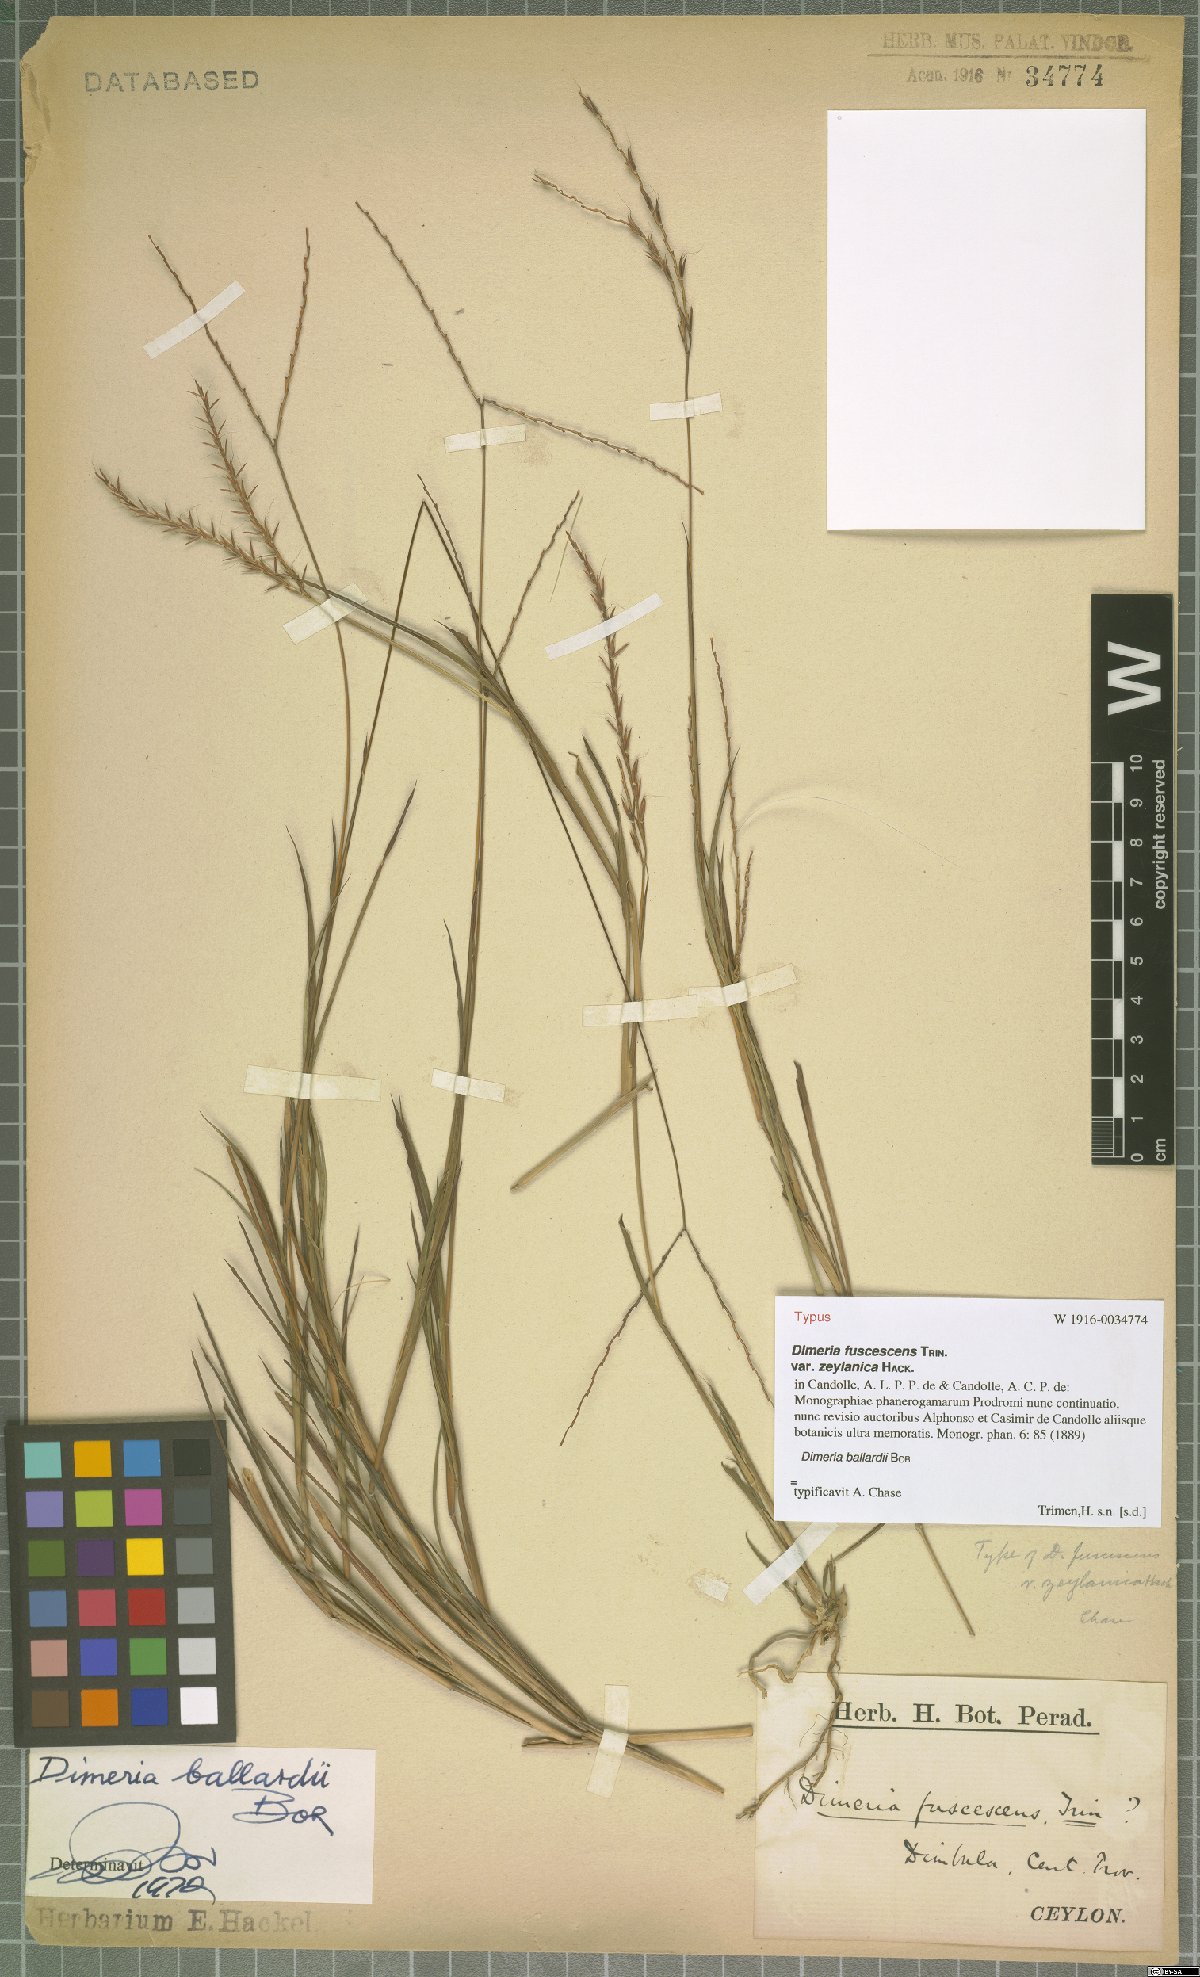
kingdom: Plantae
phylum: Tracheophyta
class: Liliopsida
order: Poales
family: Poaceae
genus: Dimeria
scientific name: Dimeria ballardii
